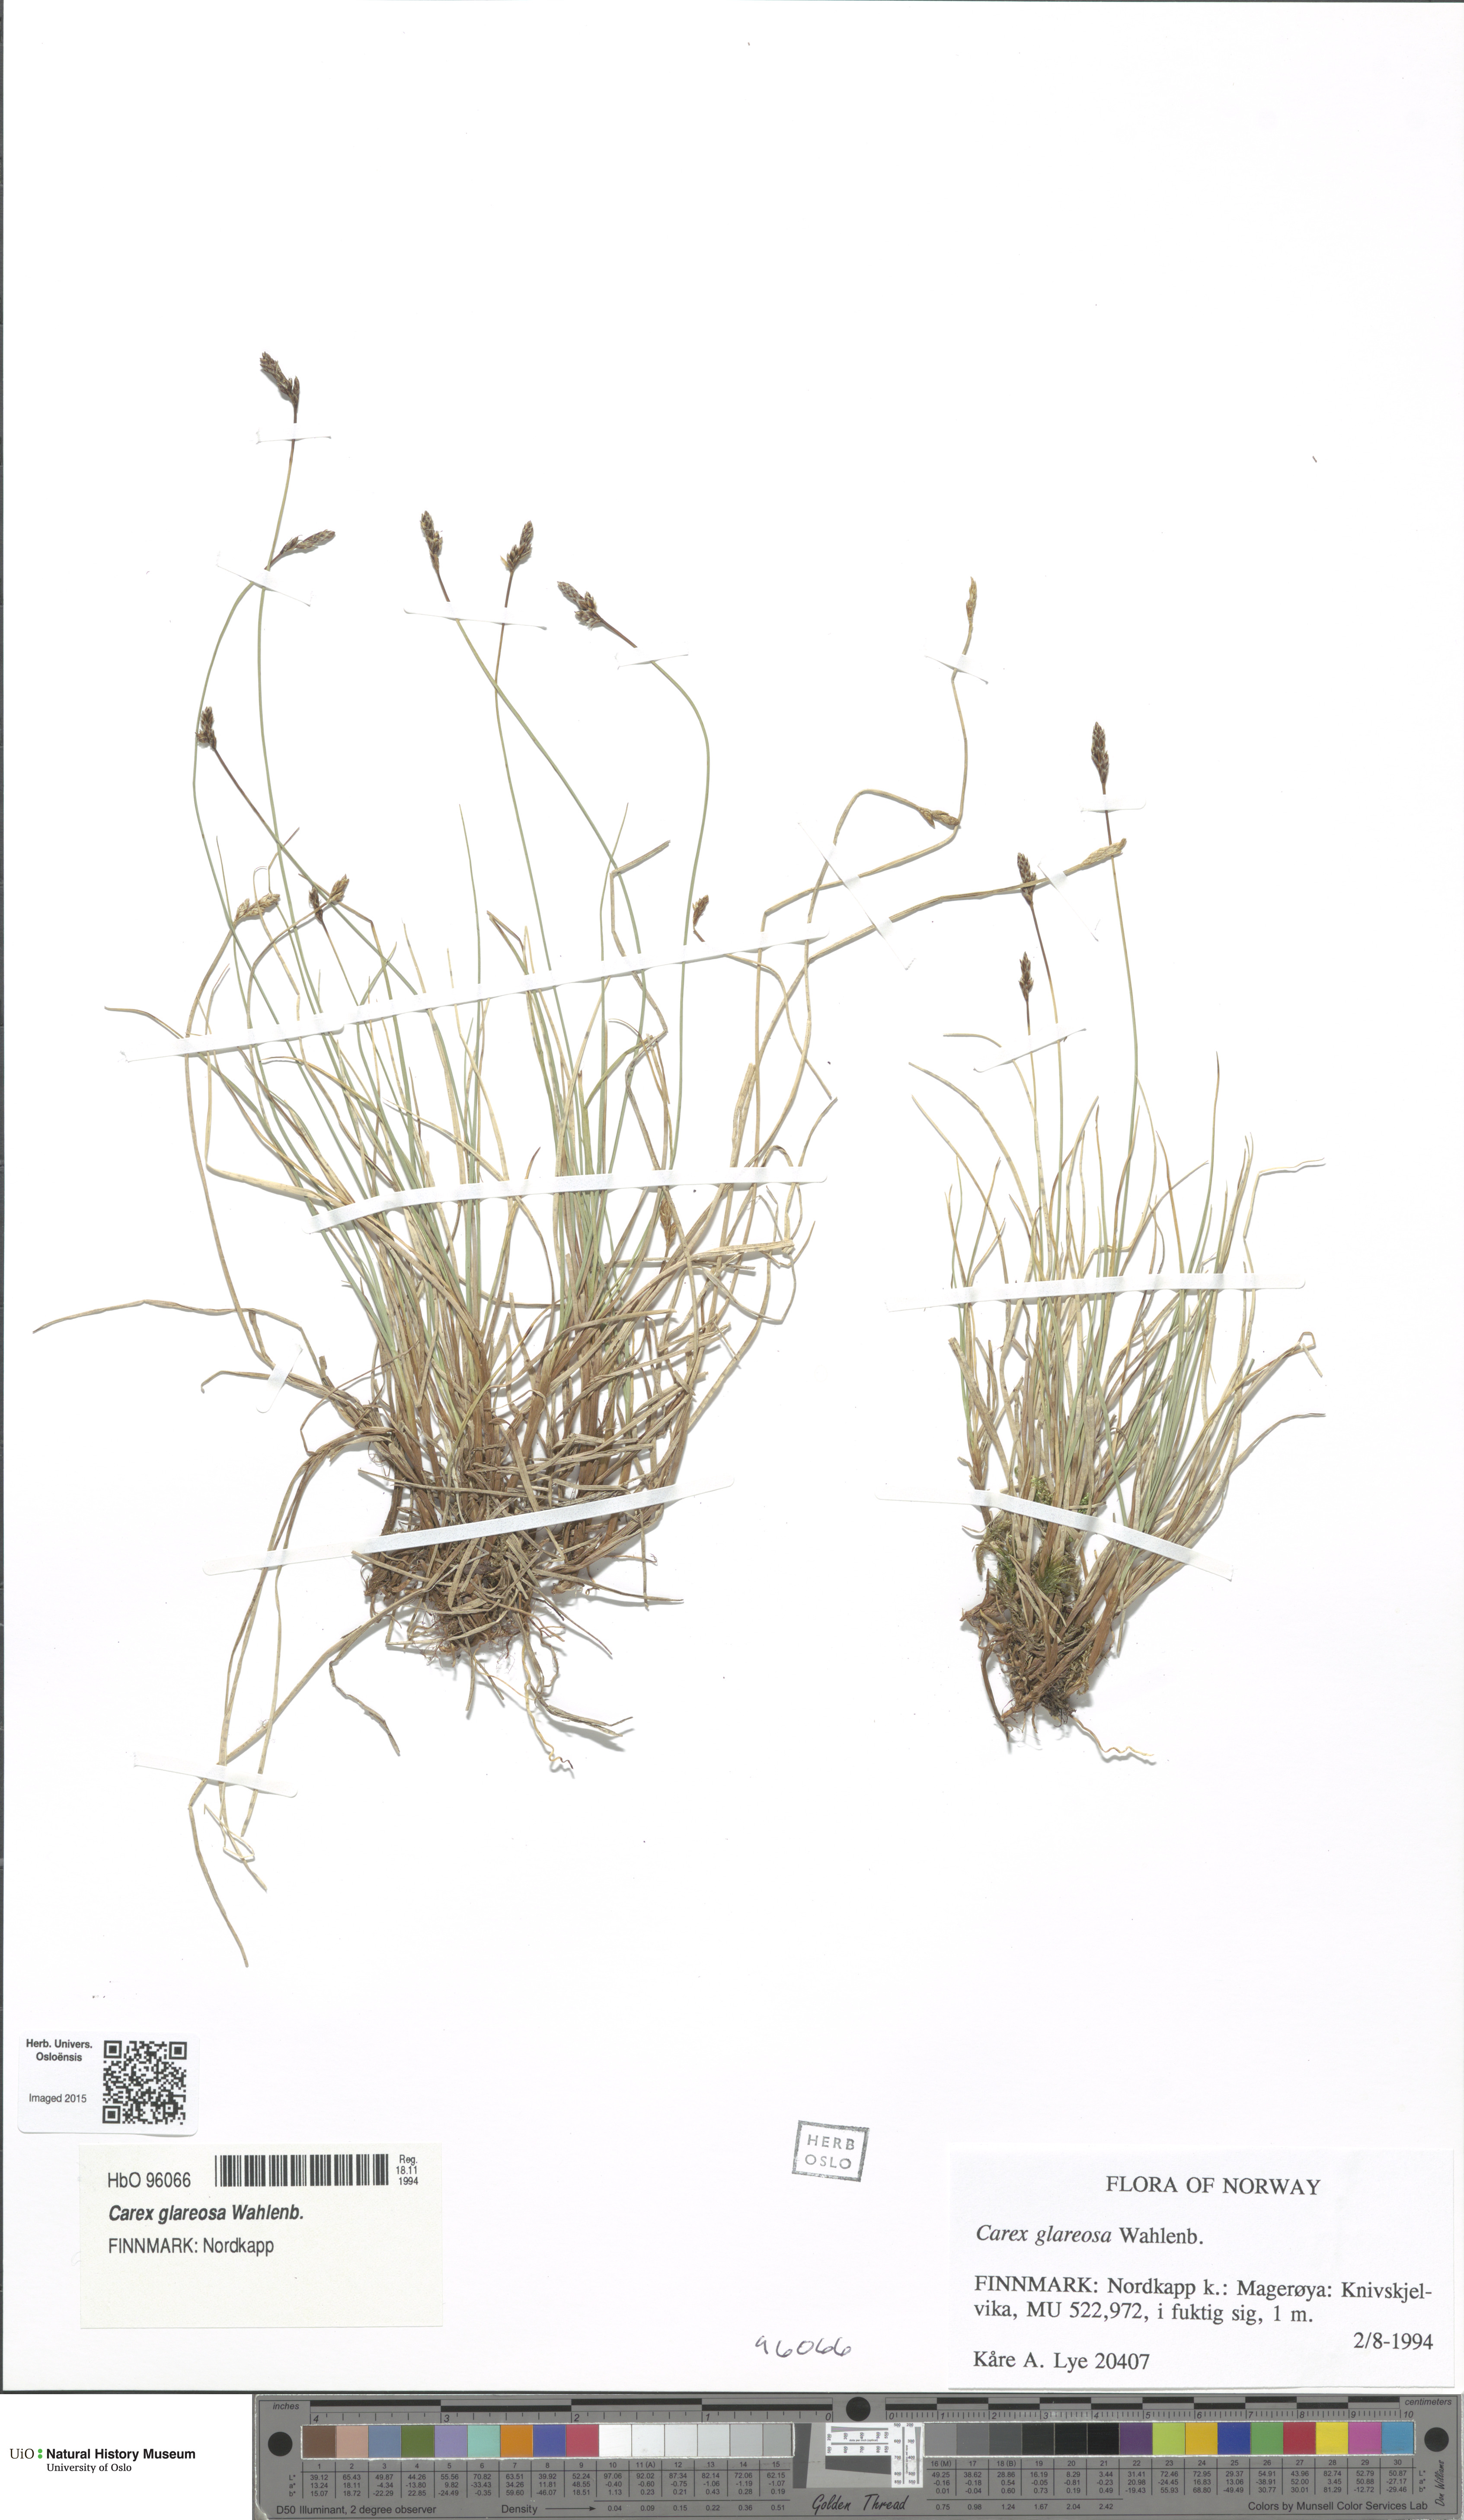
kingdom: Plantae
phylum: Tracheophyta
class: Liliopsida
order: Poales
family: Cyperaceae
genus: Carex
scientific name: Carex glareosa
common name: Clustered sedge
